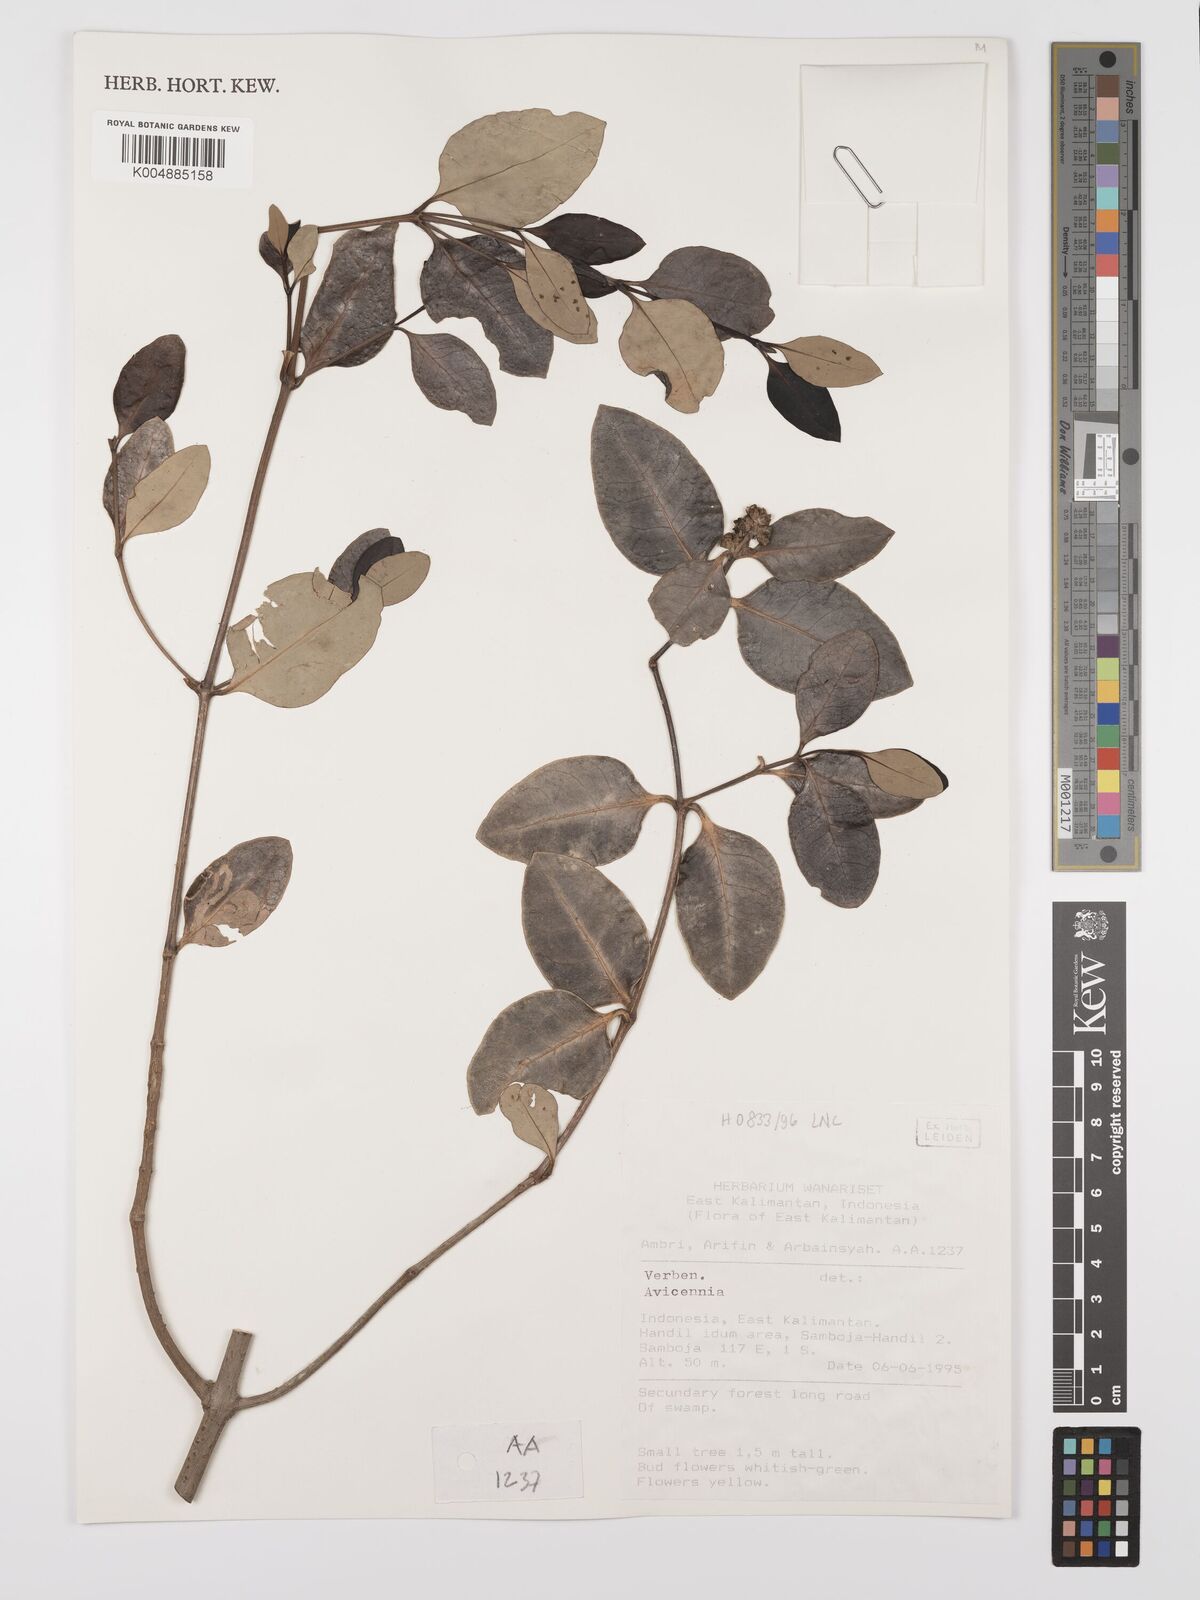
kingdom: Plantae
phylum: Tracheophyta
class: Magnoliopsida
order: Lamiales
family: Acanthaceae
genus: Avicennia
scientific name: Avicennia
